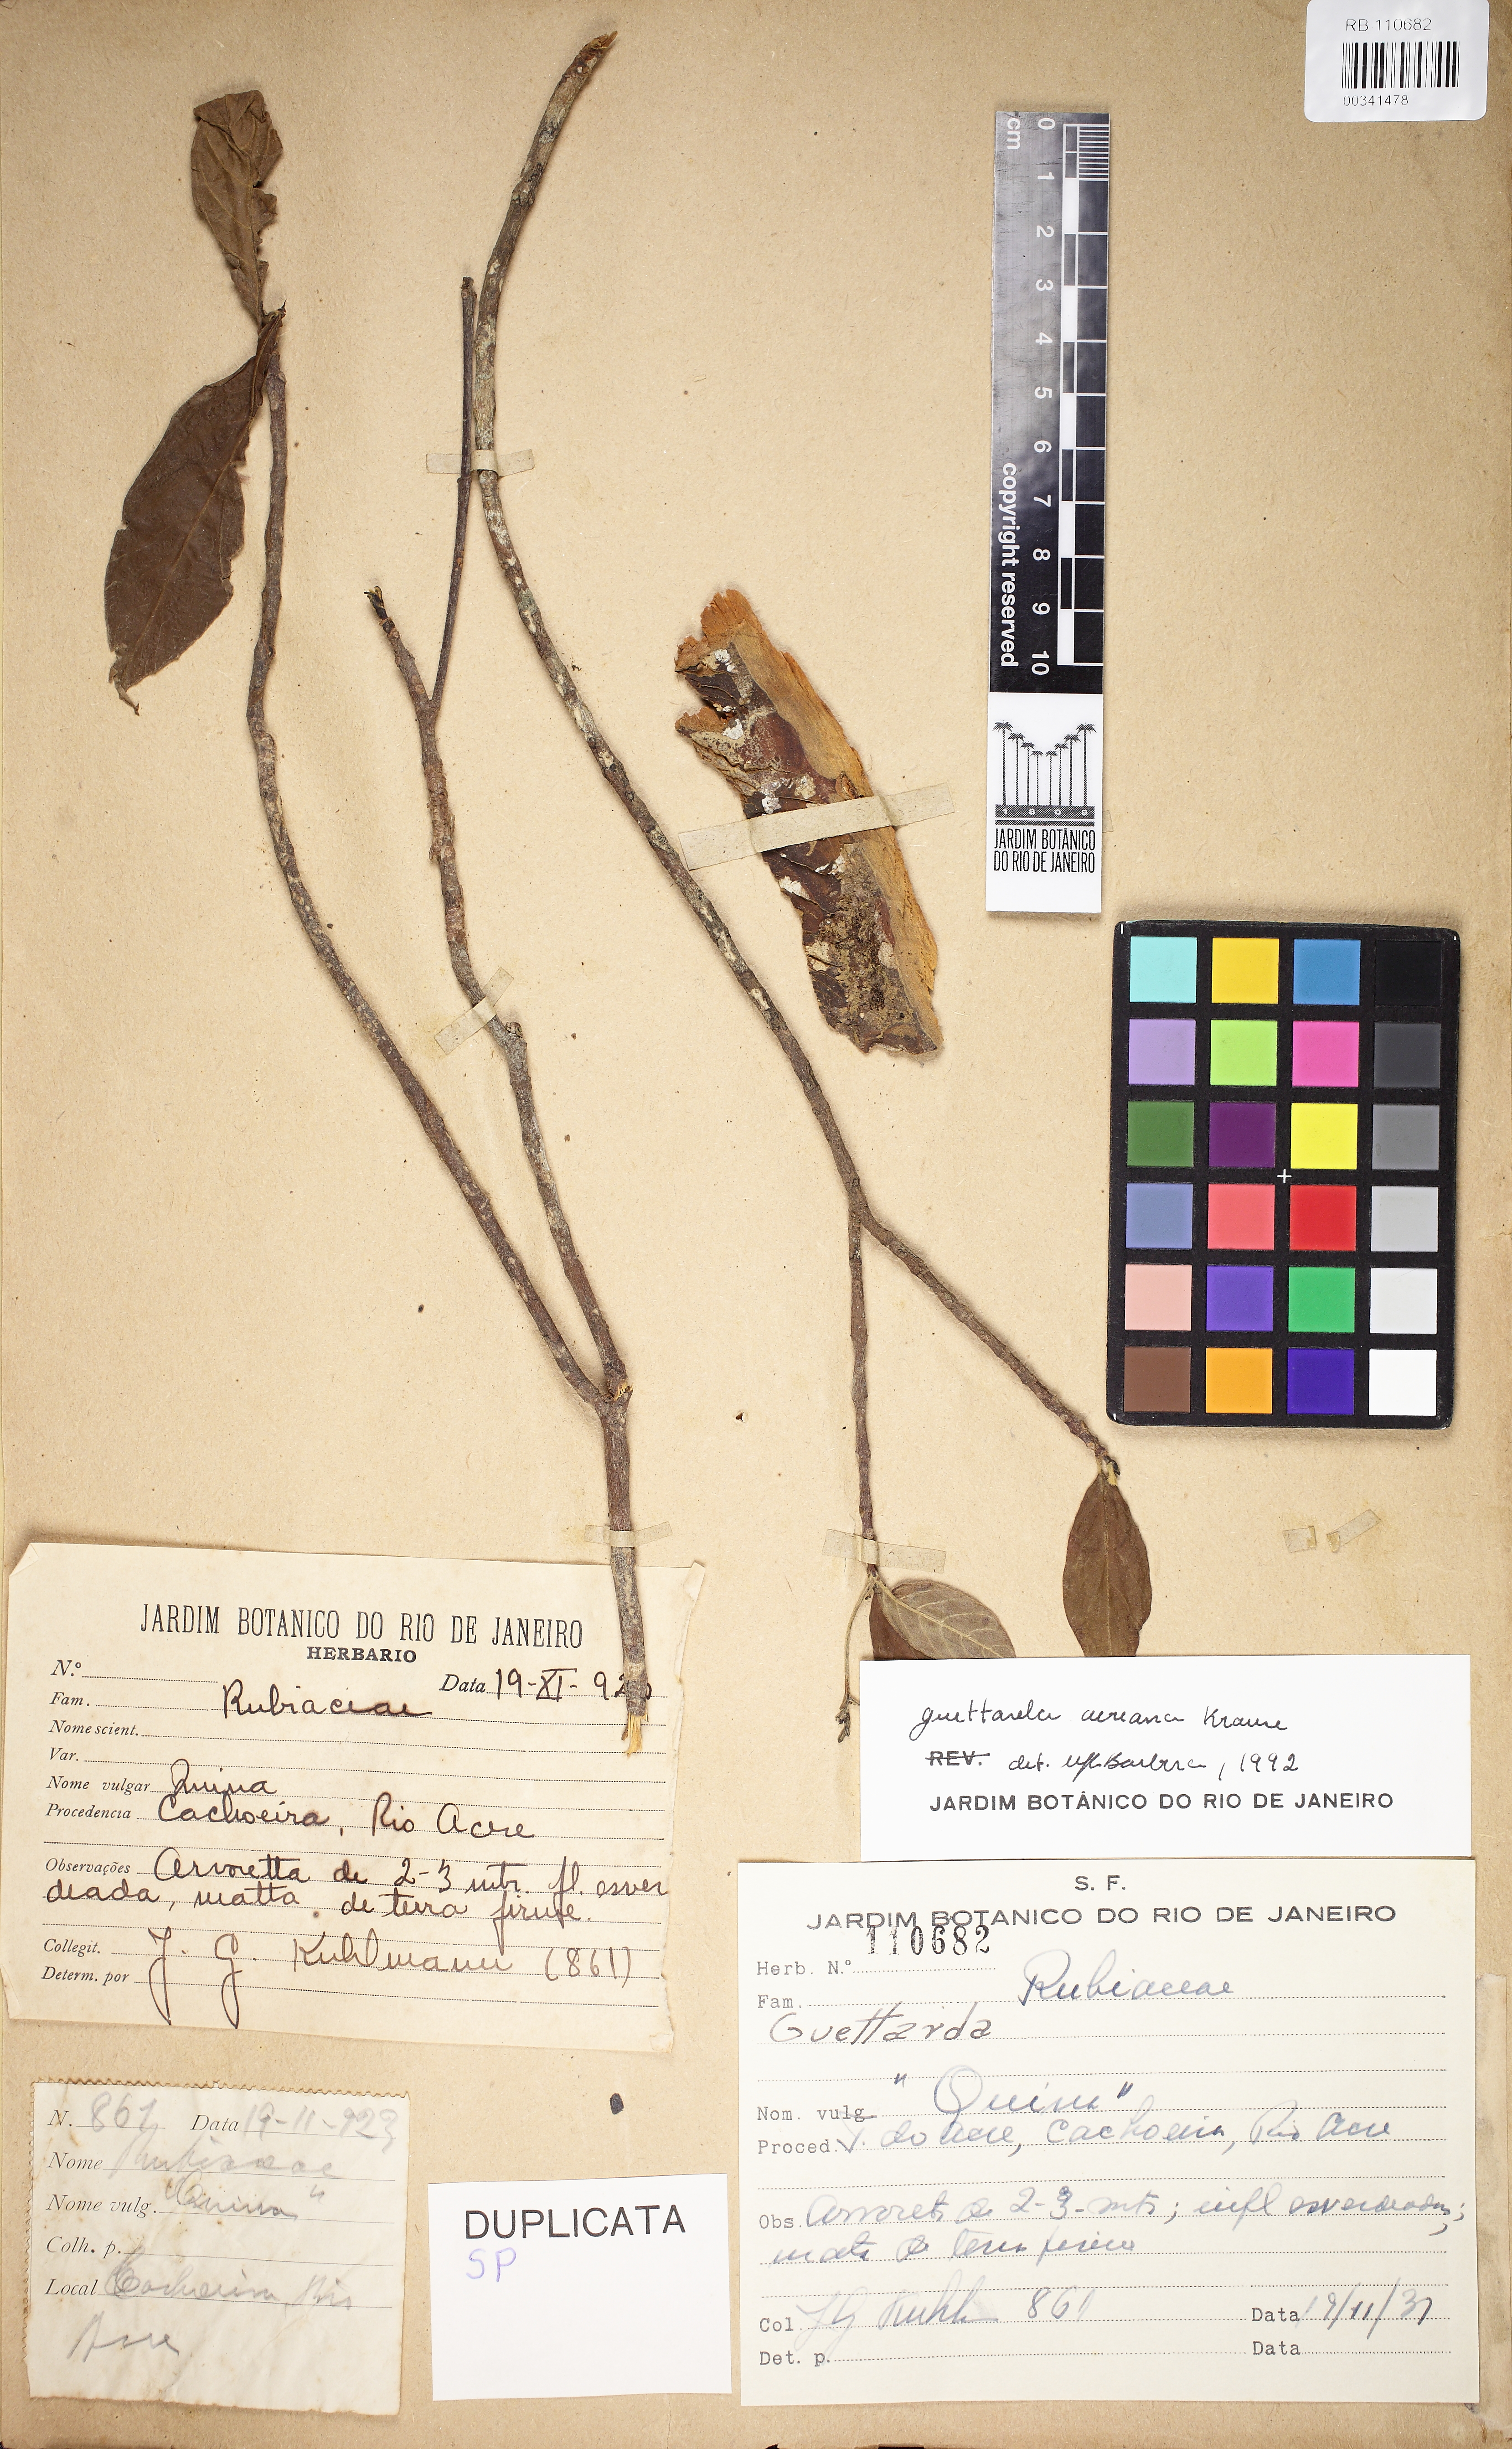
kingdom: Plantae
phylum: Tracheophyta
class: Magnoliopsida
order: Gentianales
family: Rubiaceae
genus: Stenostomum
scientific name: Stenostomum acreanum
